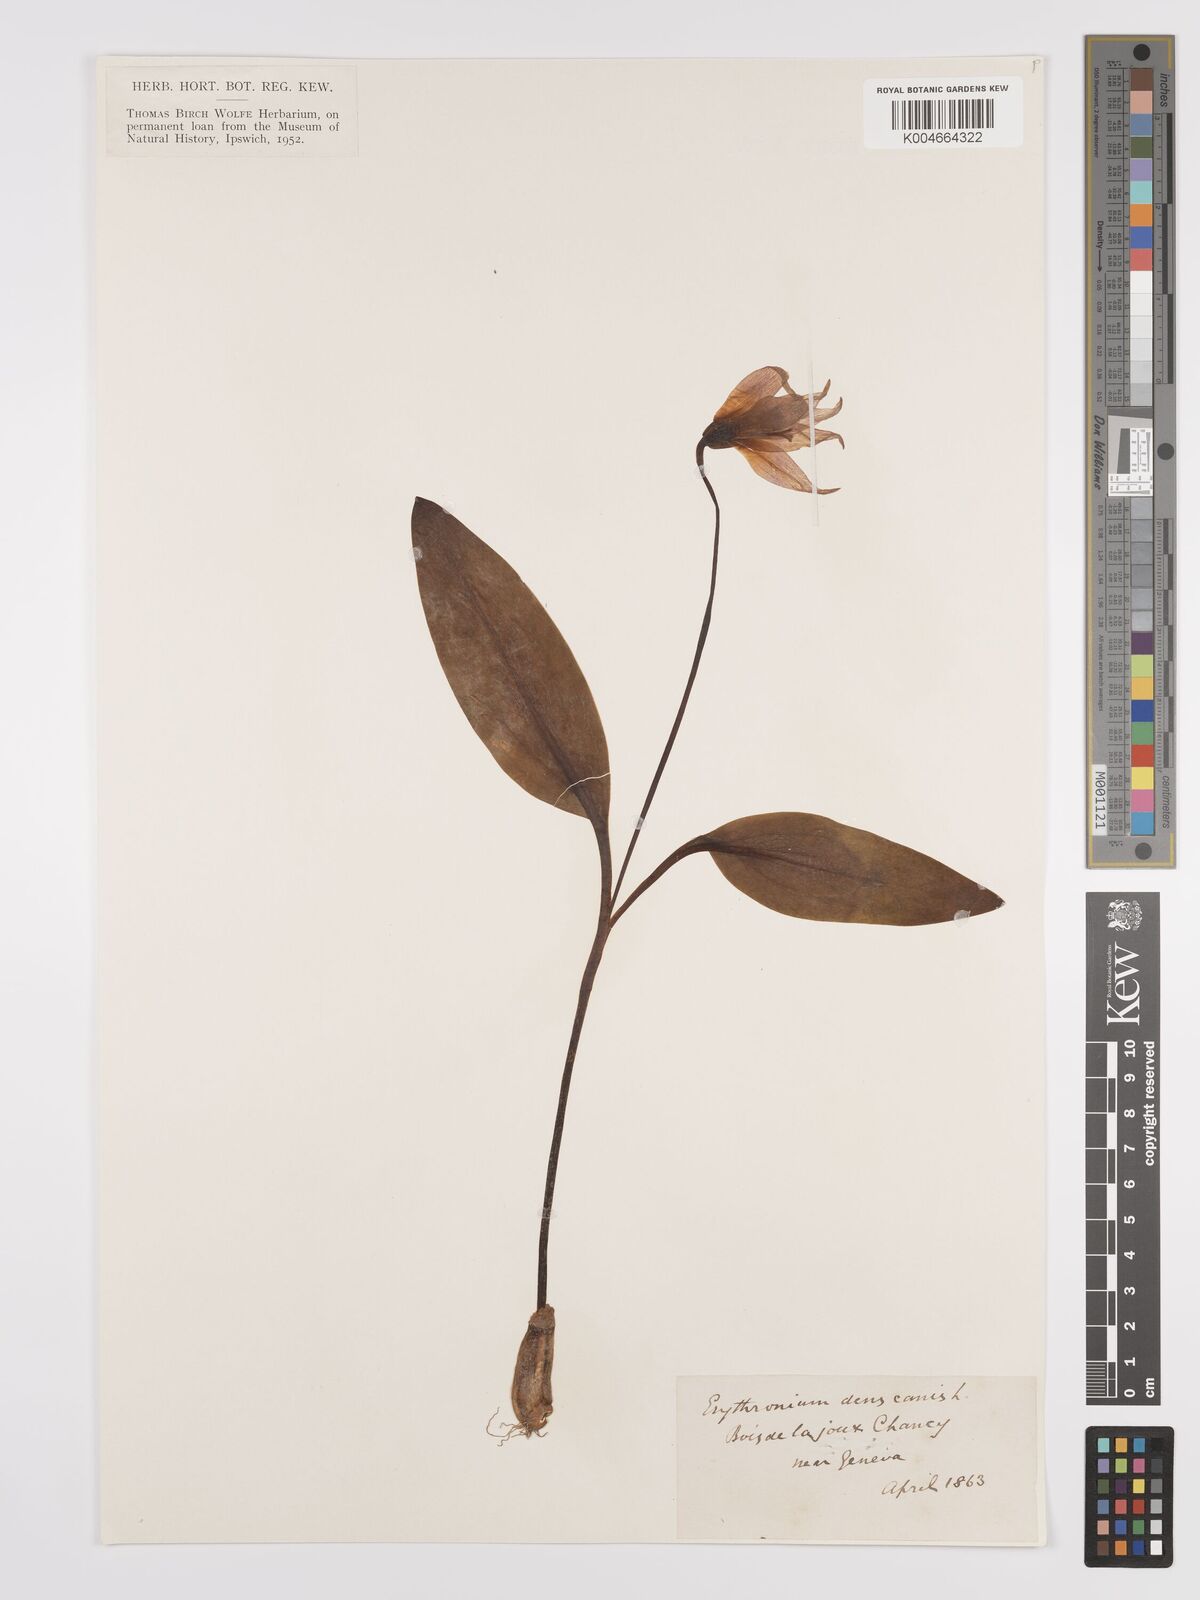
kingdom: Plantae
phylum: Tracheophyta
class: Liliopsida
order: Liliales
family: Liliaceae
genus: Erythronium
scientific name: Erythronium dens-canis
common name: Dog's-tooth-violet
